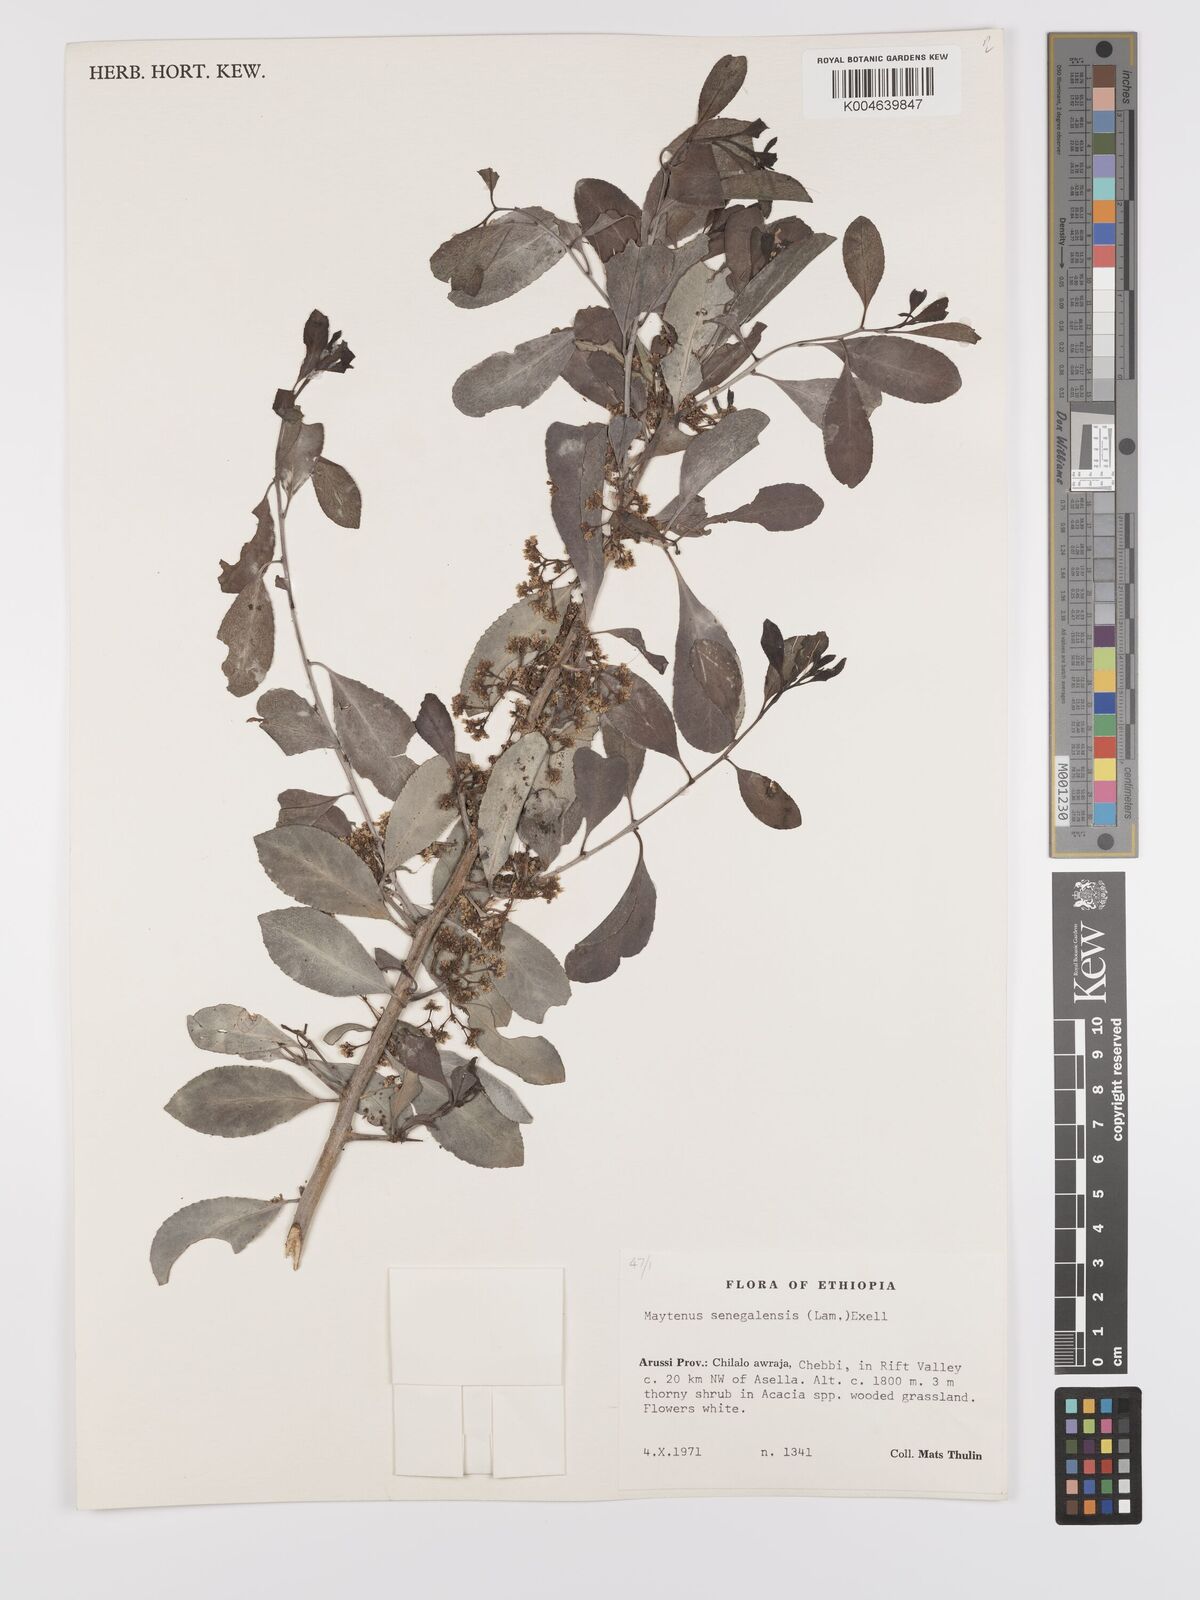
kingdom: Plantae
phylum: Tracheophyta
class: Magnoliopsida
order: Celastrales
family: Celastraceae
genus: Gymnosporia
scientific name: Gymnosporia senegalensis
